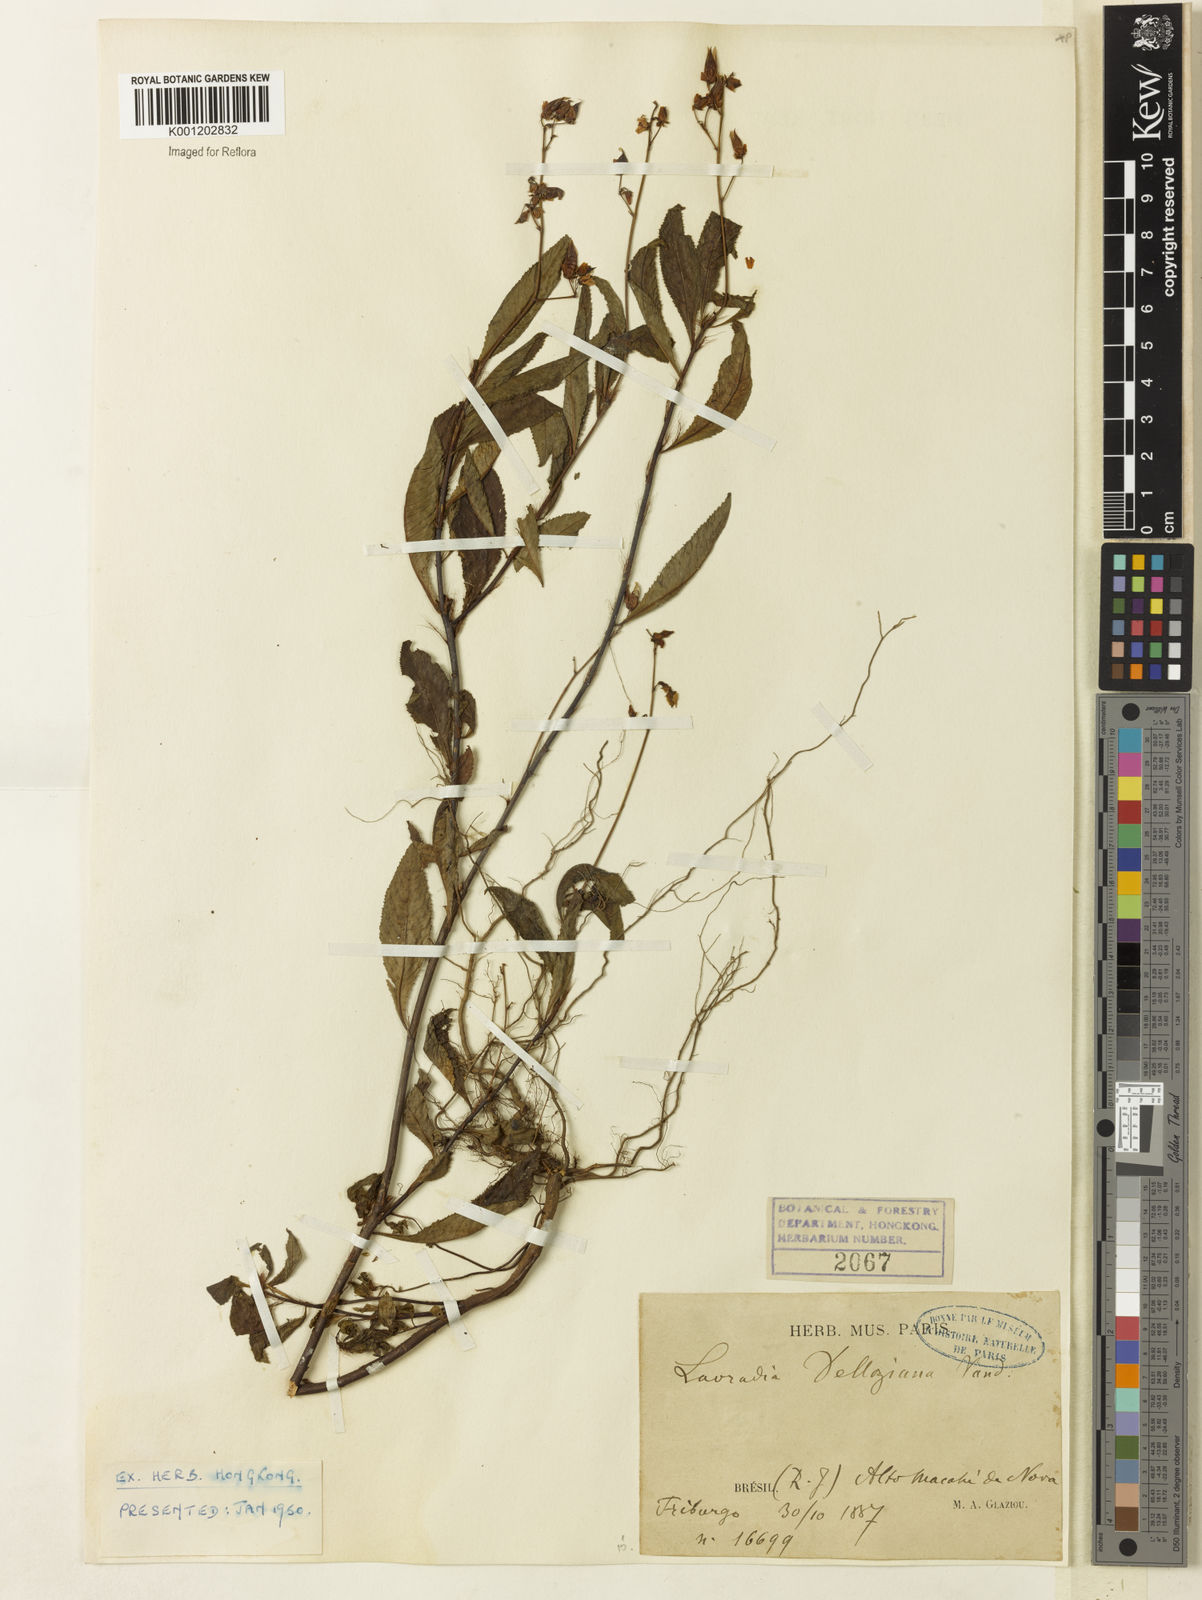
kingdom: Plantae
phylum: Tracheophyta
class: Magnoliopsida
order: Malpighiales
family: Ochnaceae
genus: Sauvagesia
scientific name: Sauvagesia
